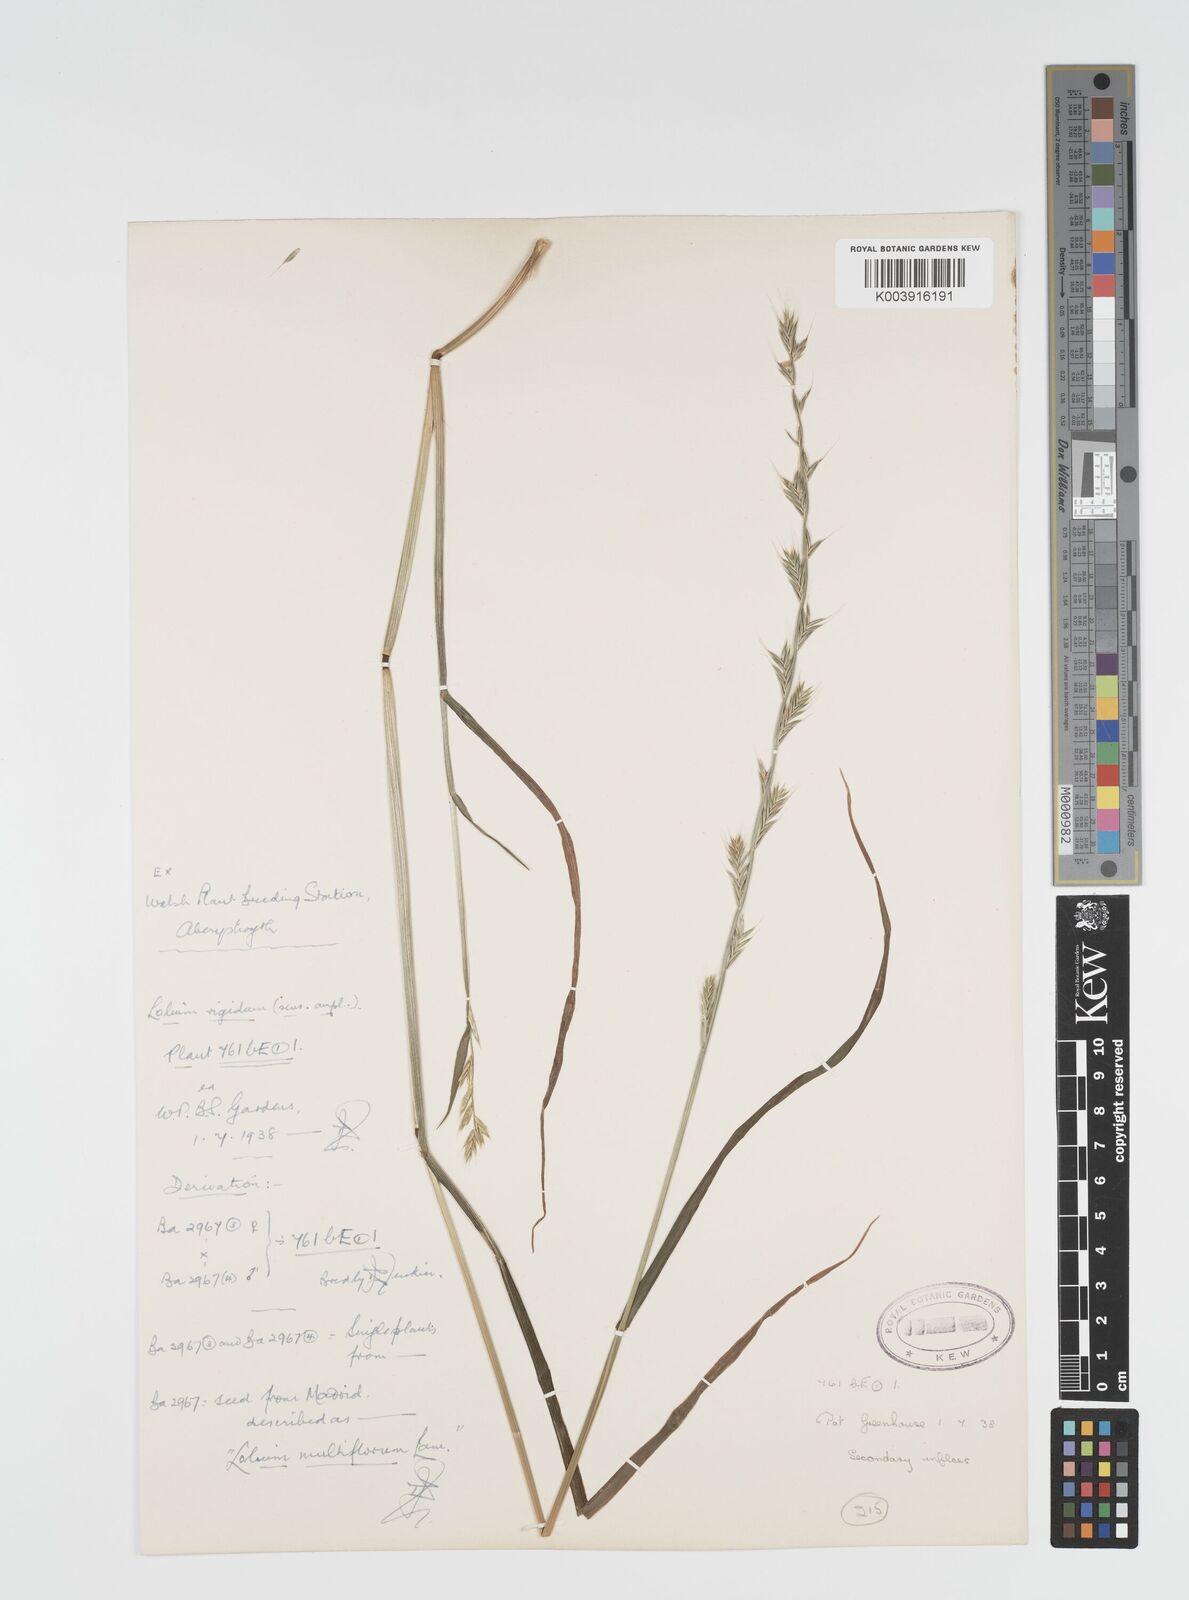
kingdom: Plantae
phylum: Tracheophyta
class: Liliopsida
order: Poales
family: Poaceae
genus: Lolium
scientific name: Lolium rigidum
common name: Wimmera ryegrass
